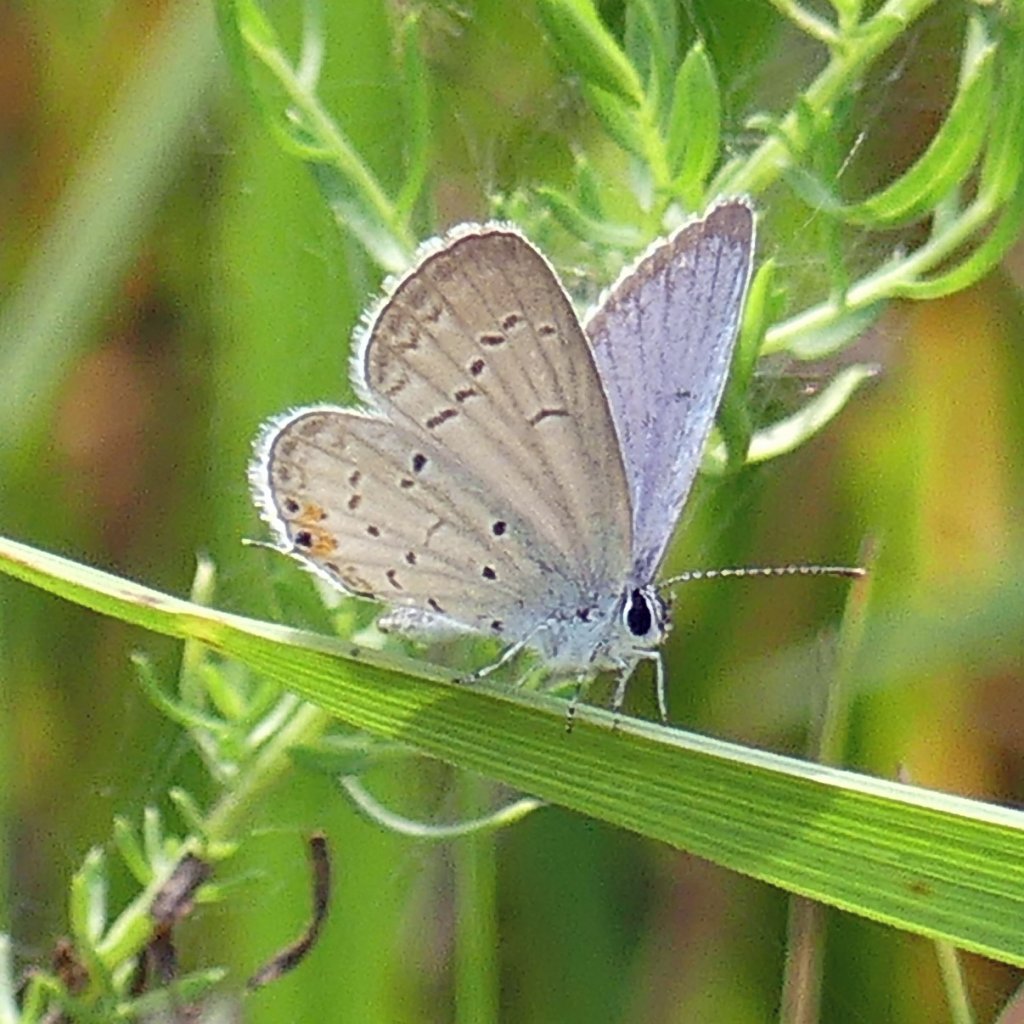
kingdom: Animalia
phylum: Arthropoda
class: Insecta
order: Lepidoptera
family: Lycaenidae
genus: Elkalyce
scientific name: Elkalyce comyntas
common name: Eastern Tailed-Blue
